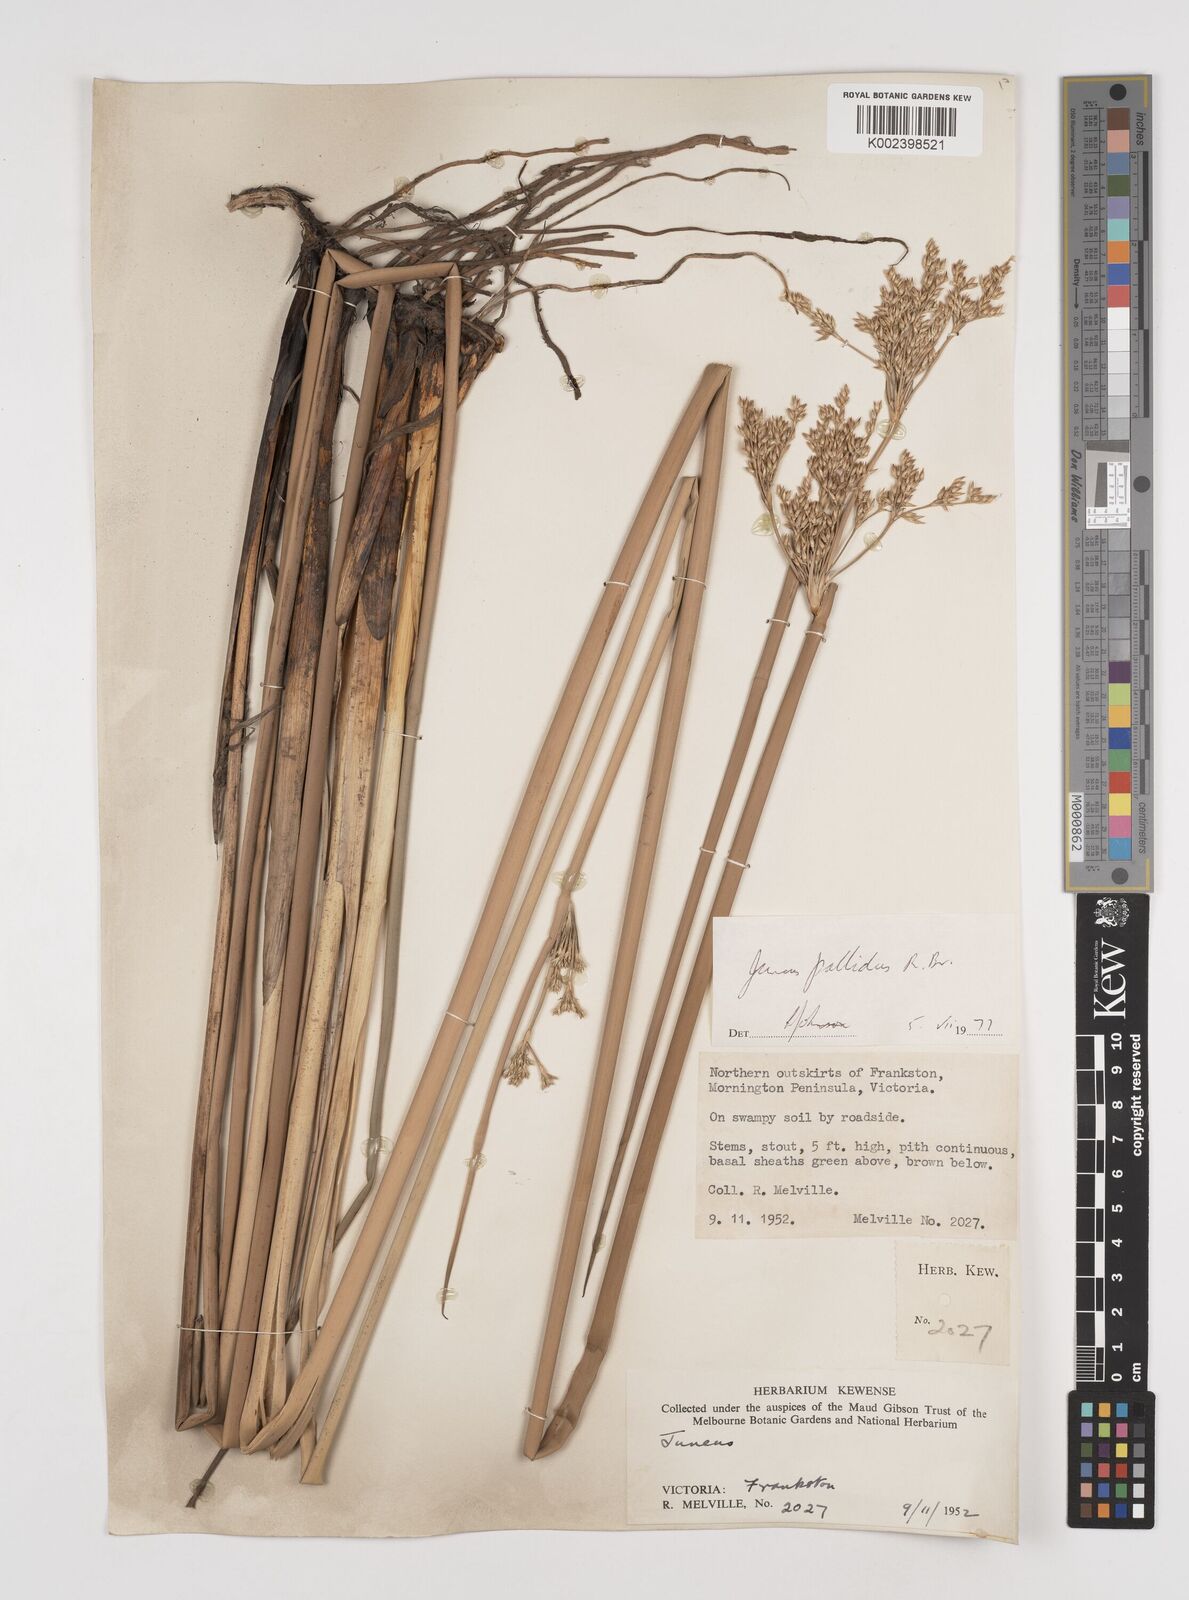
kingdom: Plantae
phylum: Tracheophyta
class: Liliopsida
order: Poales
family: Juncaceae
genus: Juncus
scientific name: Juncus pallidus
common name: Great soft-rush
